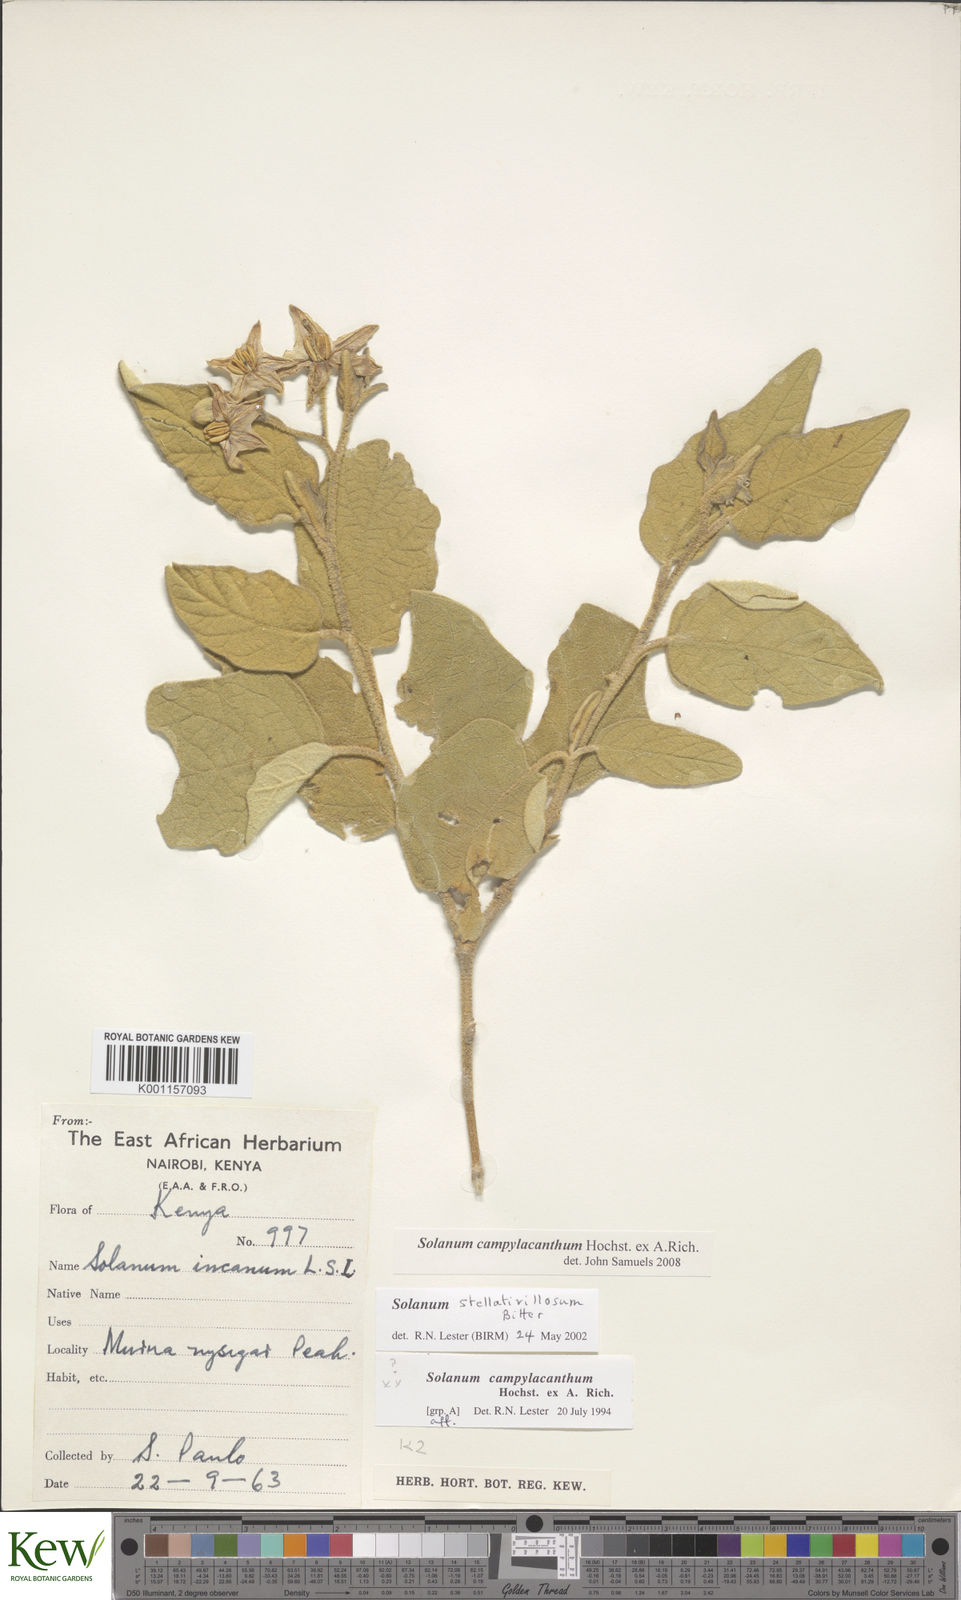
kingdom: Plantae
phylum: Tracheophyta
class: Magnoliopsida
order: Solanales
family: Solanaceae
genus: Solanum
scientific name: Solanum campylacanthum
